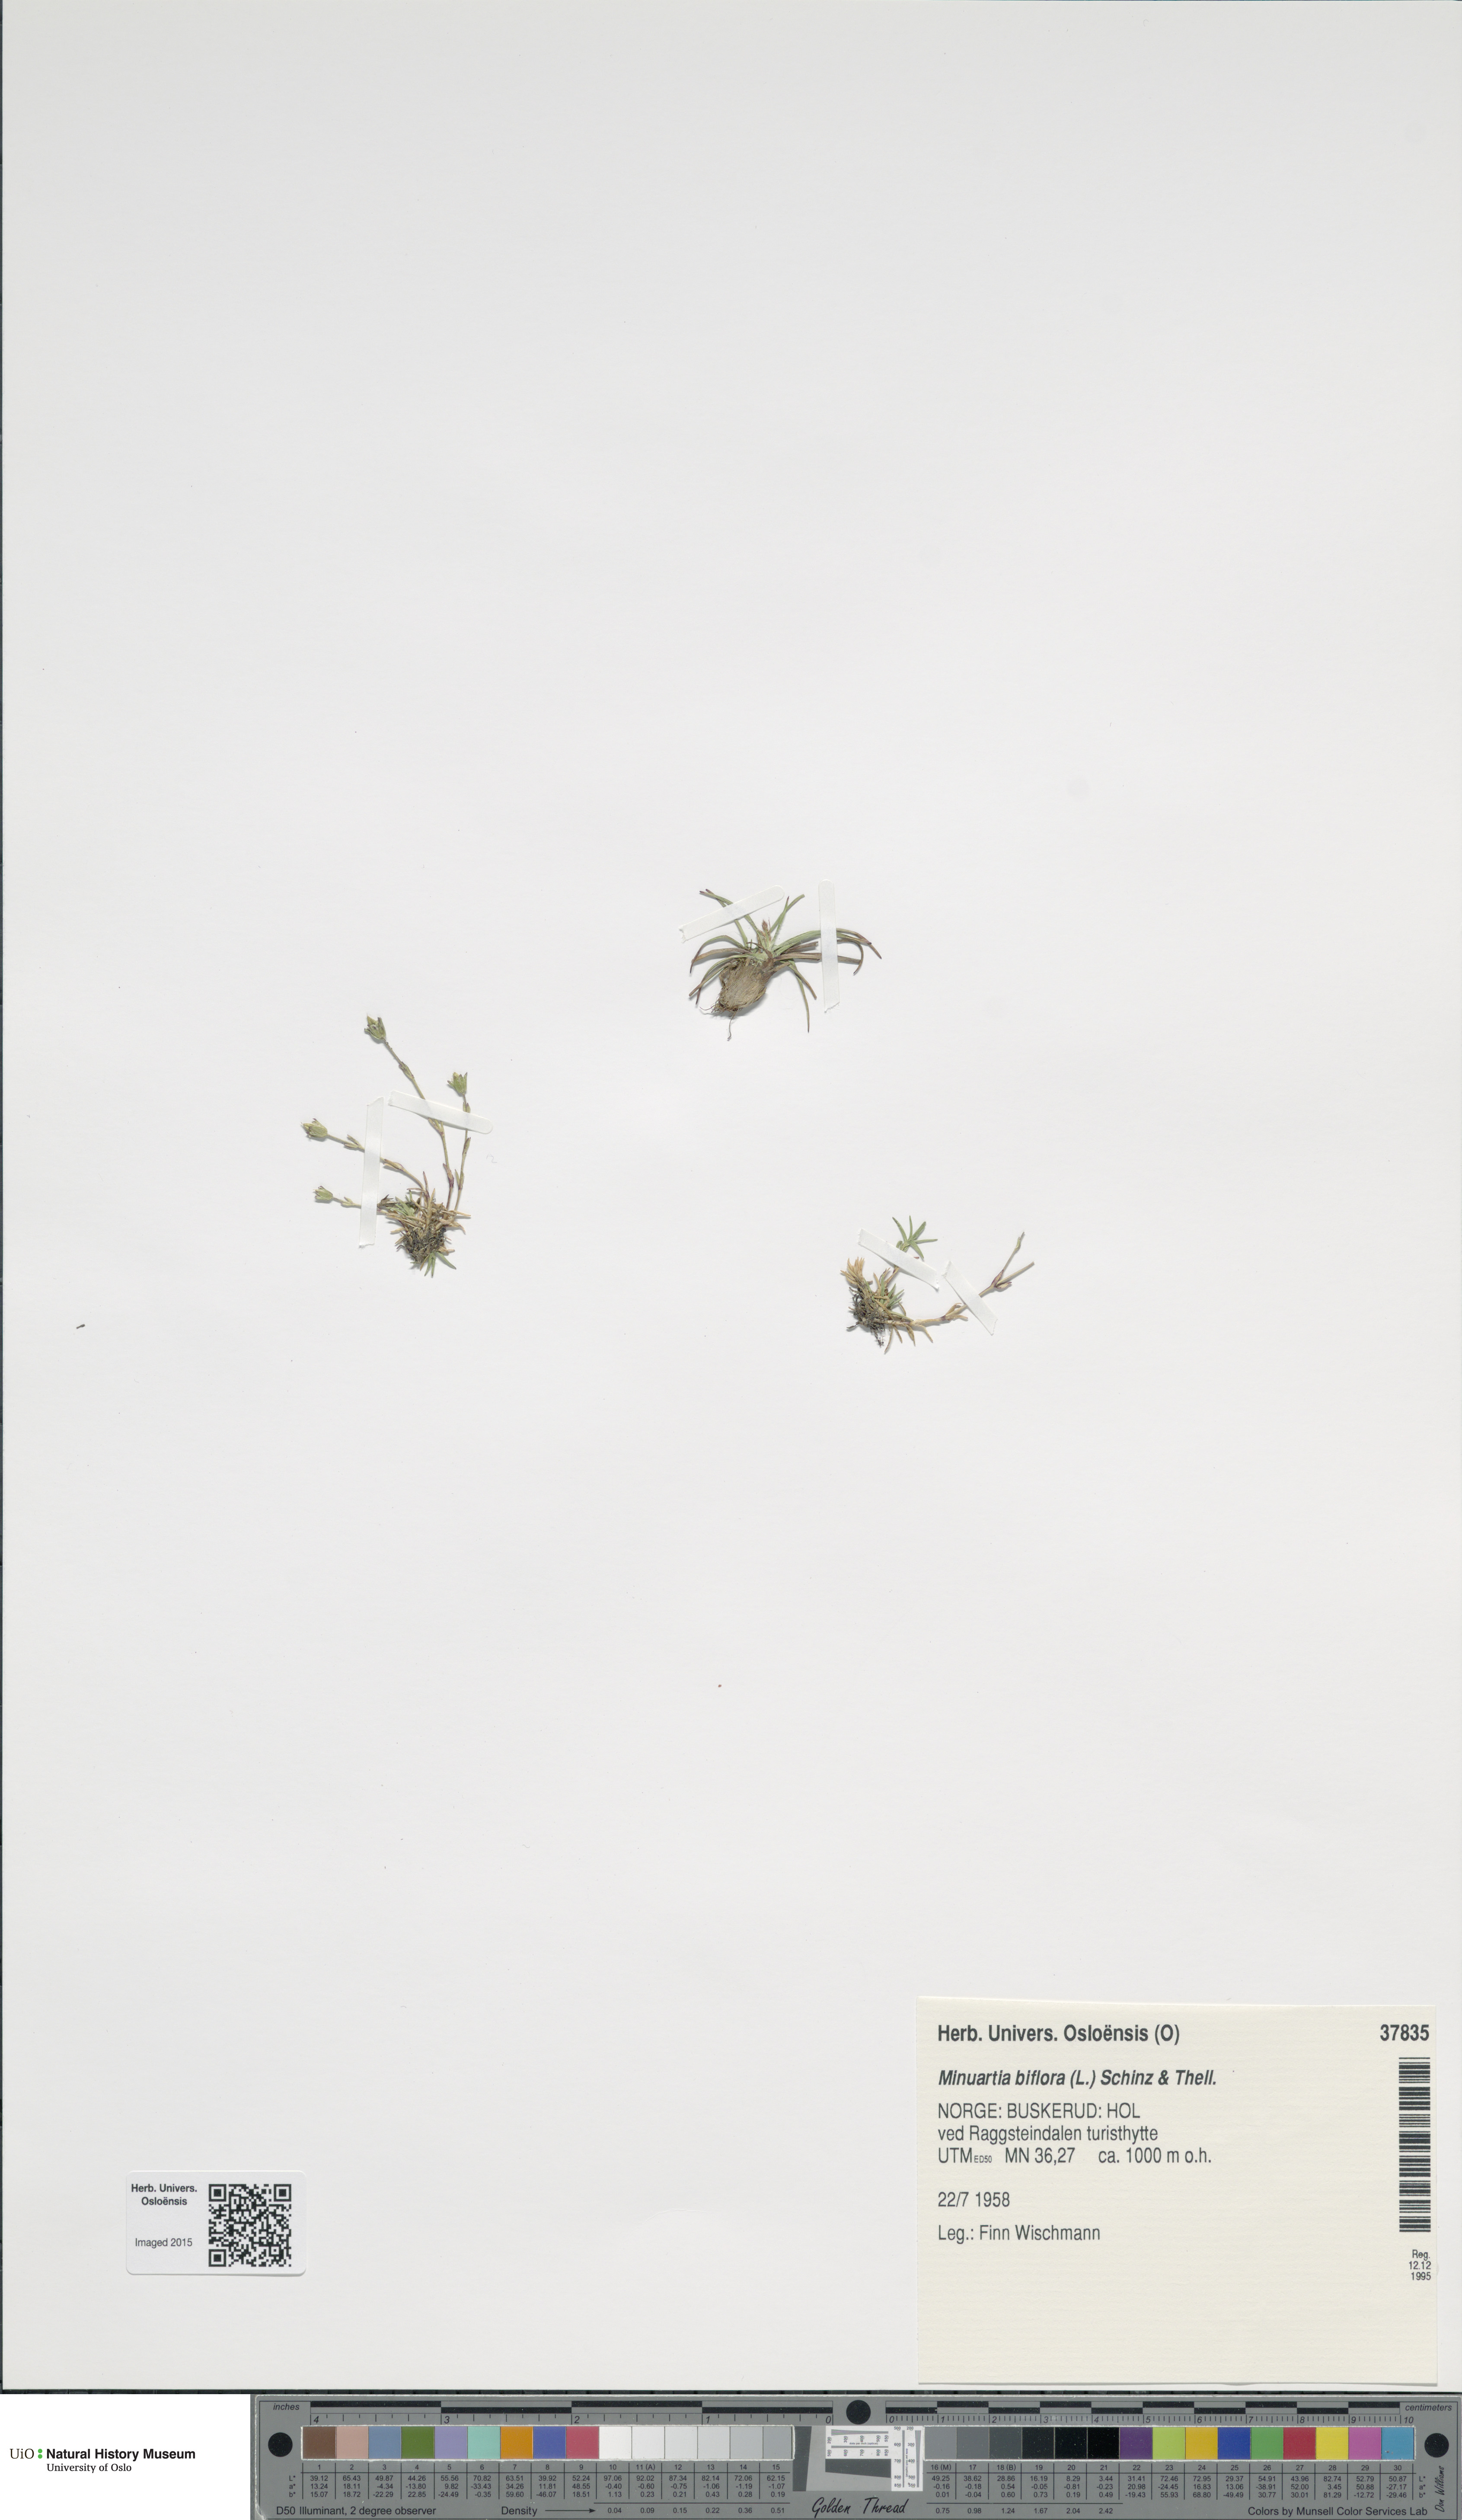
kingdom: Plantae
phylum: Tracheophyta
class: Magnoliopsida
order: Caryophyllales
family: Caryophyllaceae
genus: Cherleria
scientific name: Cherleria biflora
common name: Mountain sandwort
